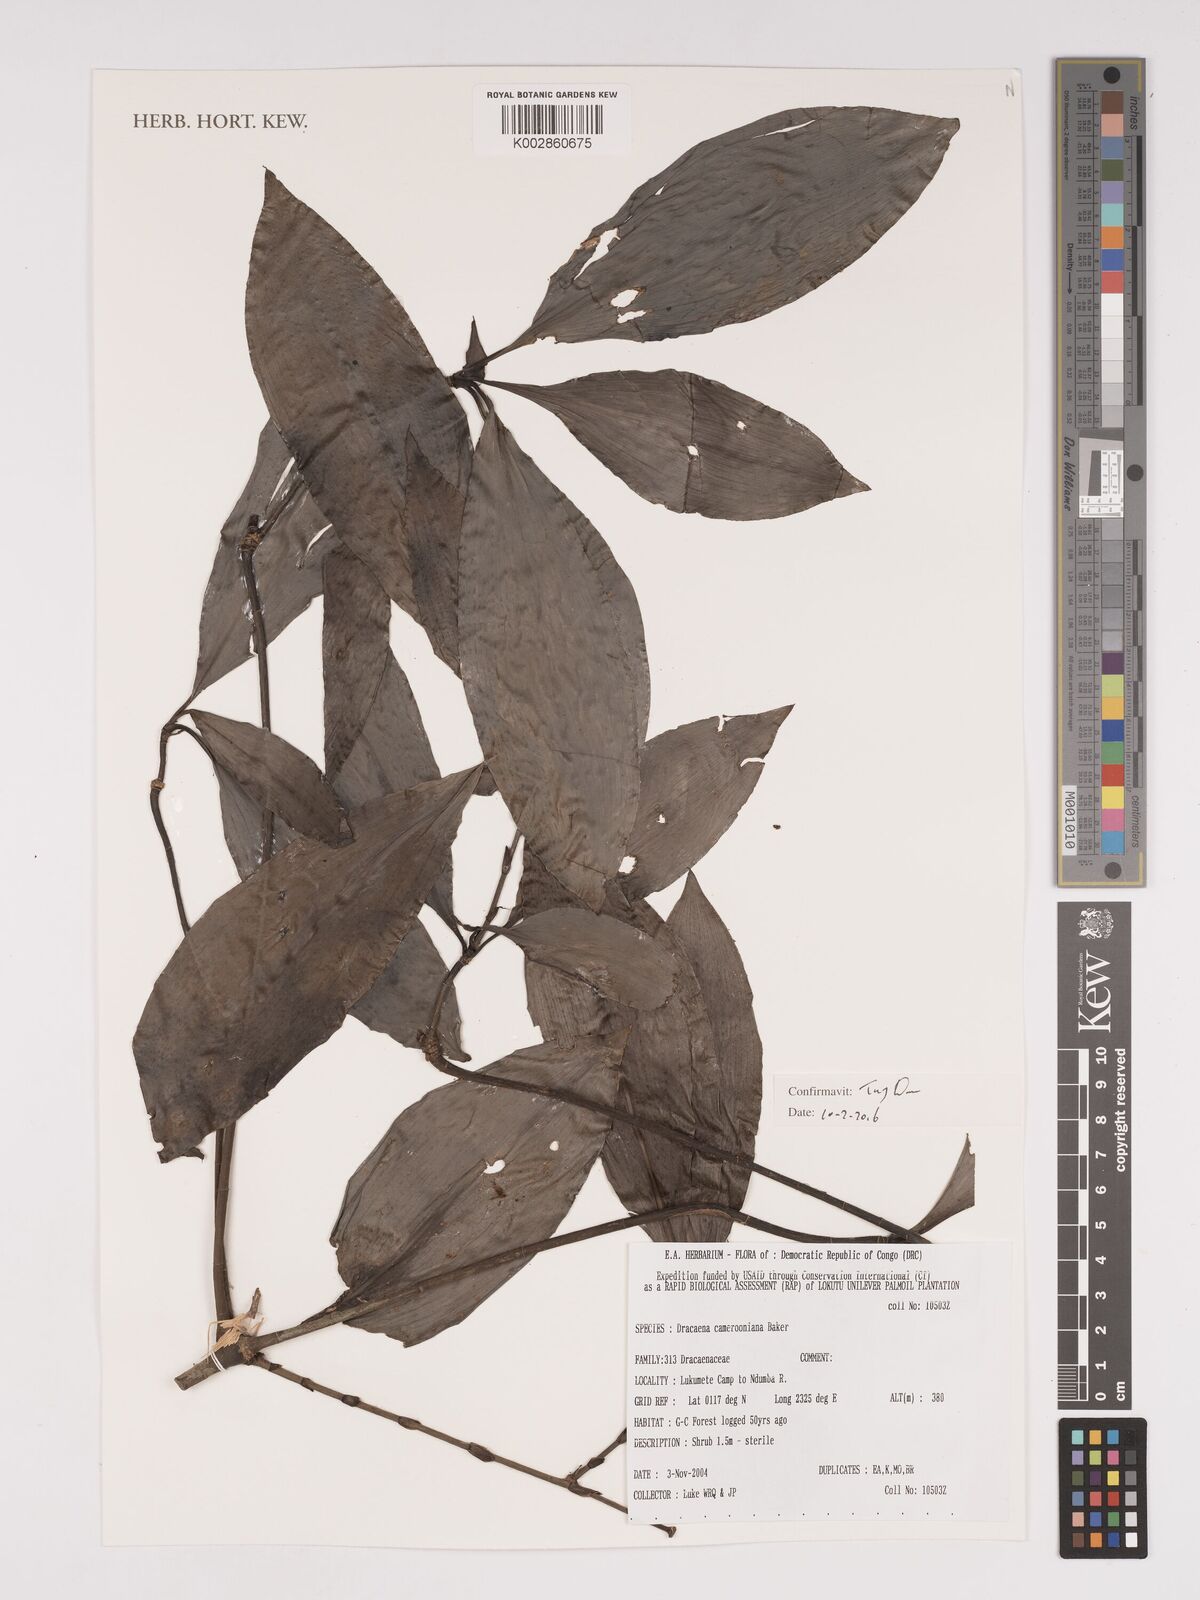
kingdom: Plantae
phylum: Tracheophyta
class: Liliopsida
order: Asparagales
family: Asparagaceae
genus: Dracaena
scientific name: Dracaena camerooniana
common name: Dragon tree
